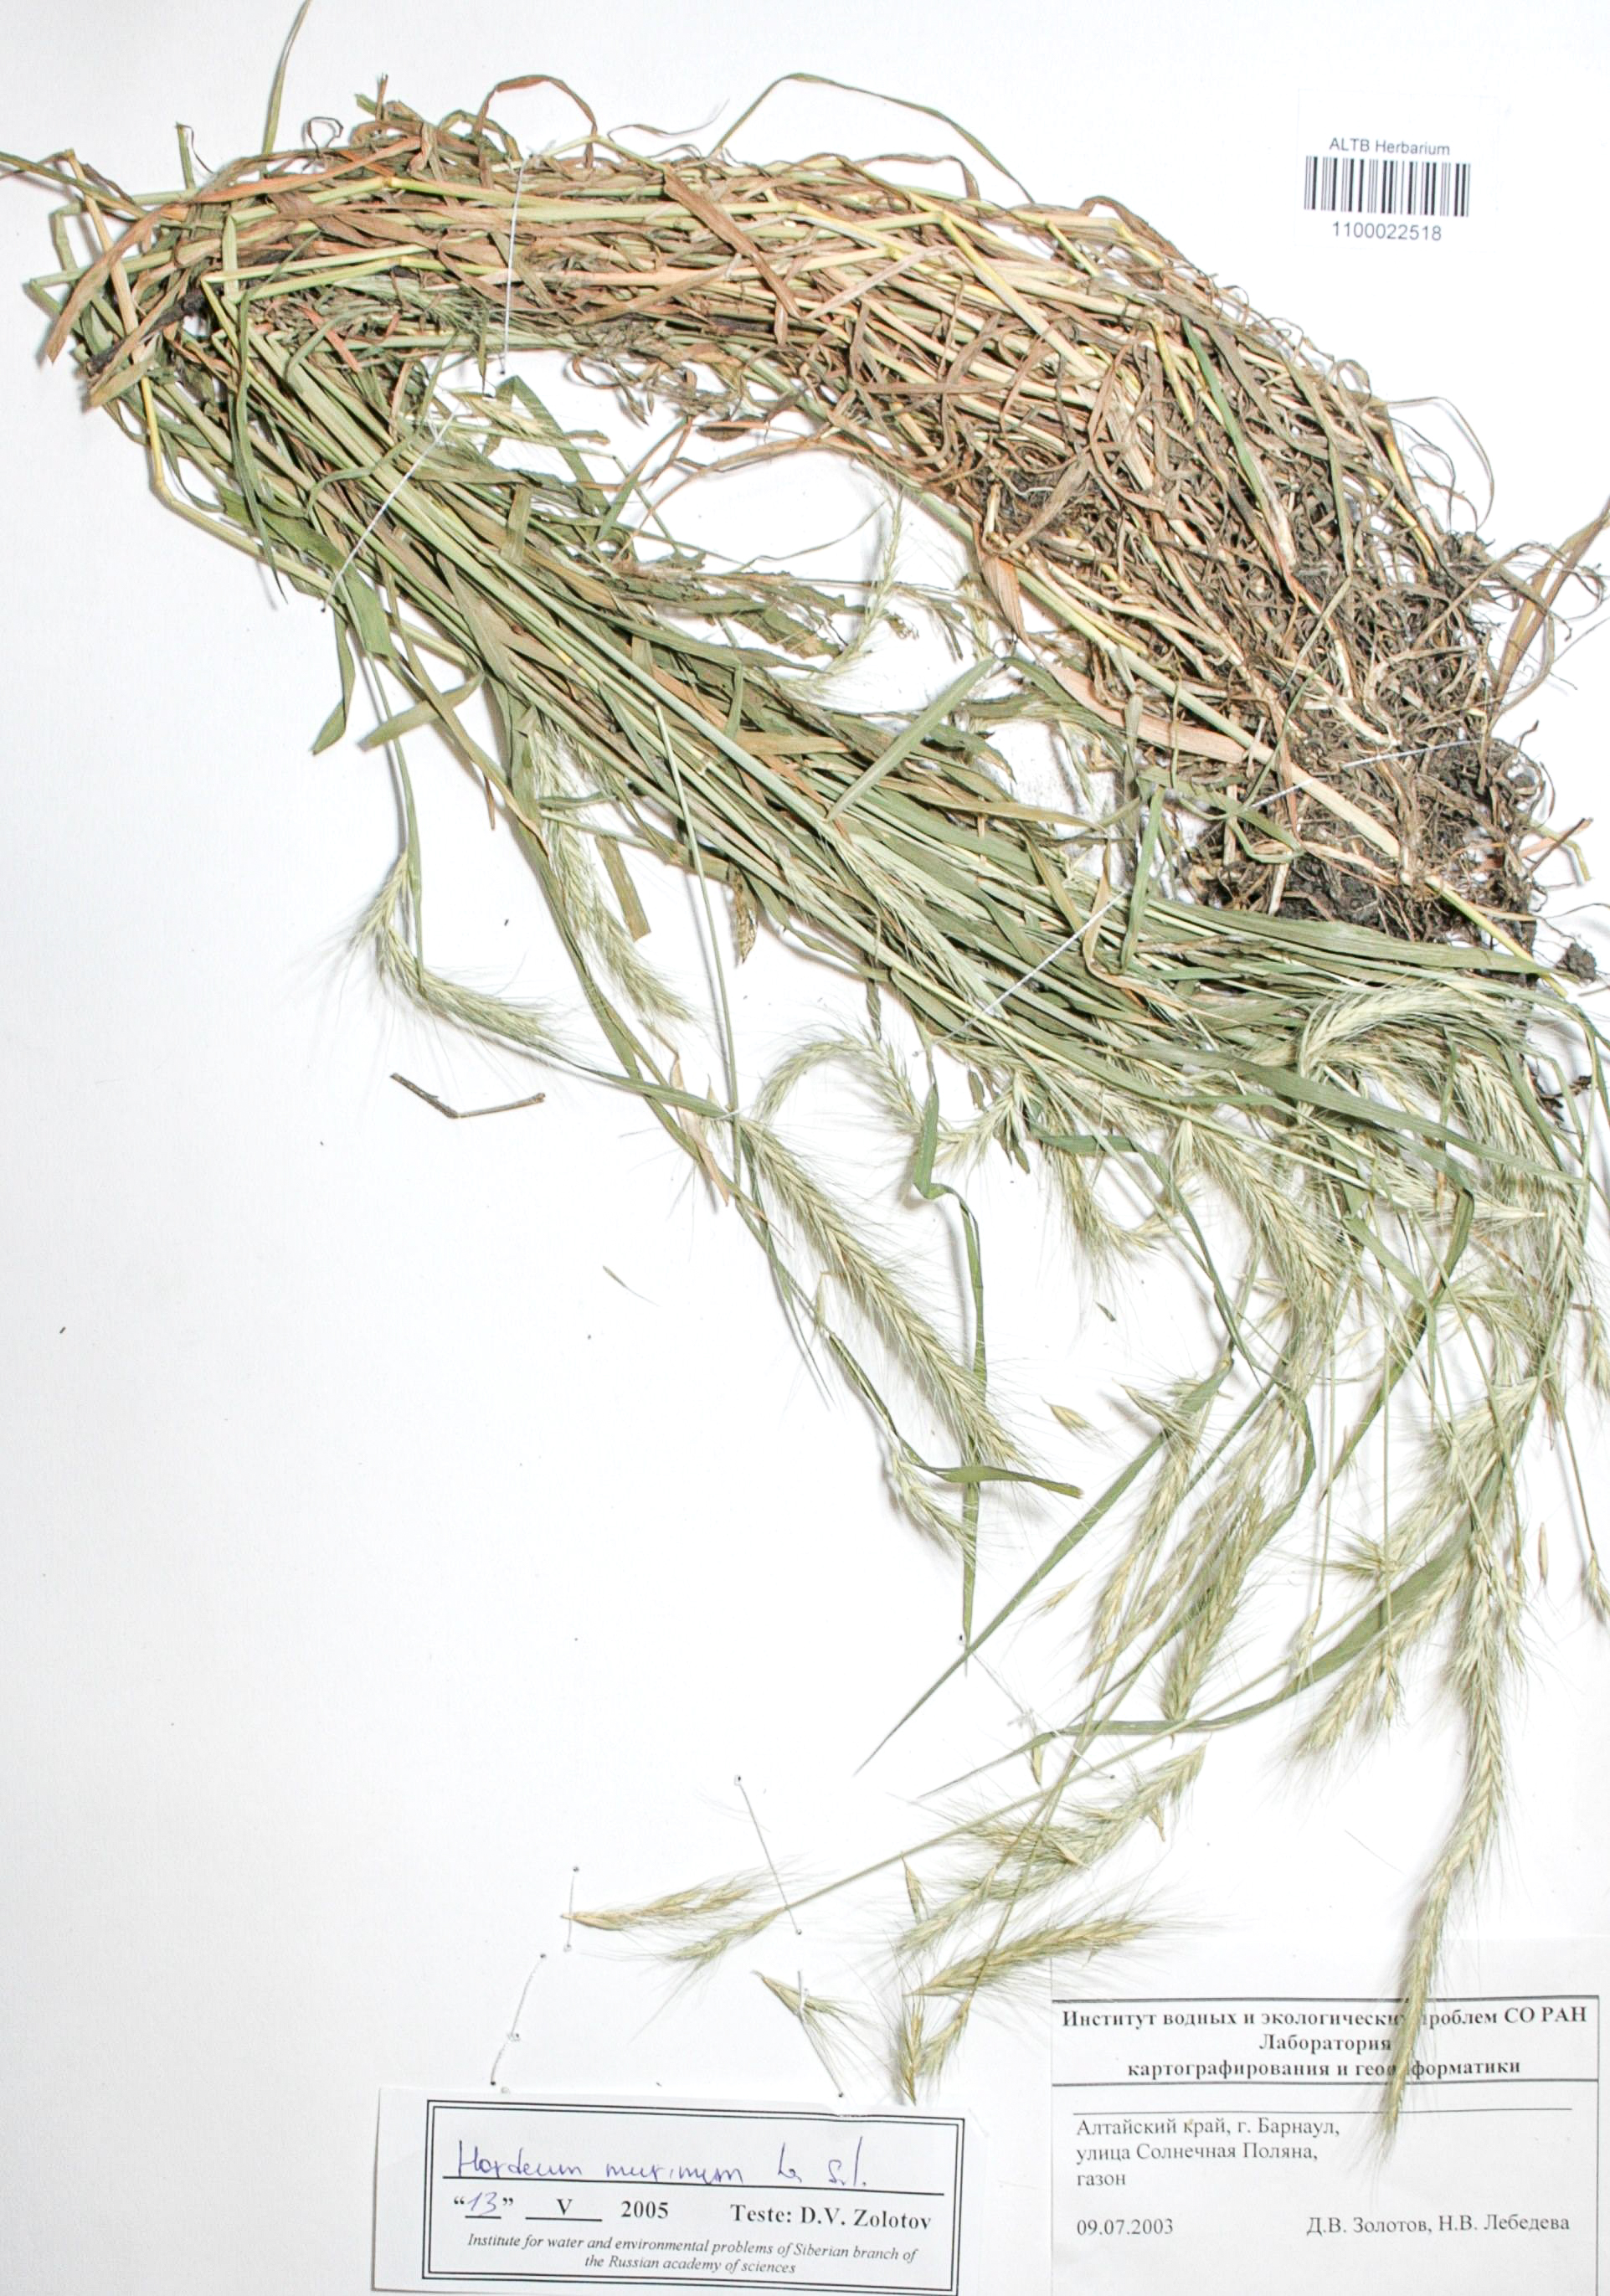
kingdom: Plantae
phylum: Tracheophyta
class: Liliopsida
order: Poales
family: Poaceae
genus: Hordeum
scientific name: Hordeum jubatum
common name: Foxtail barley
